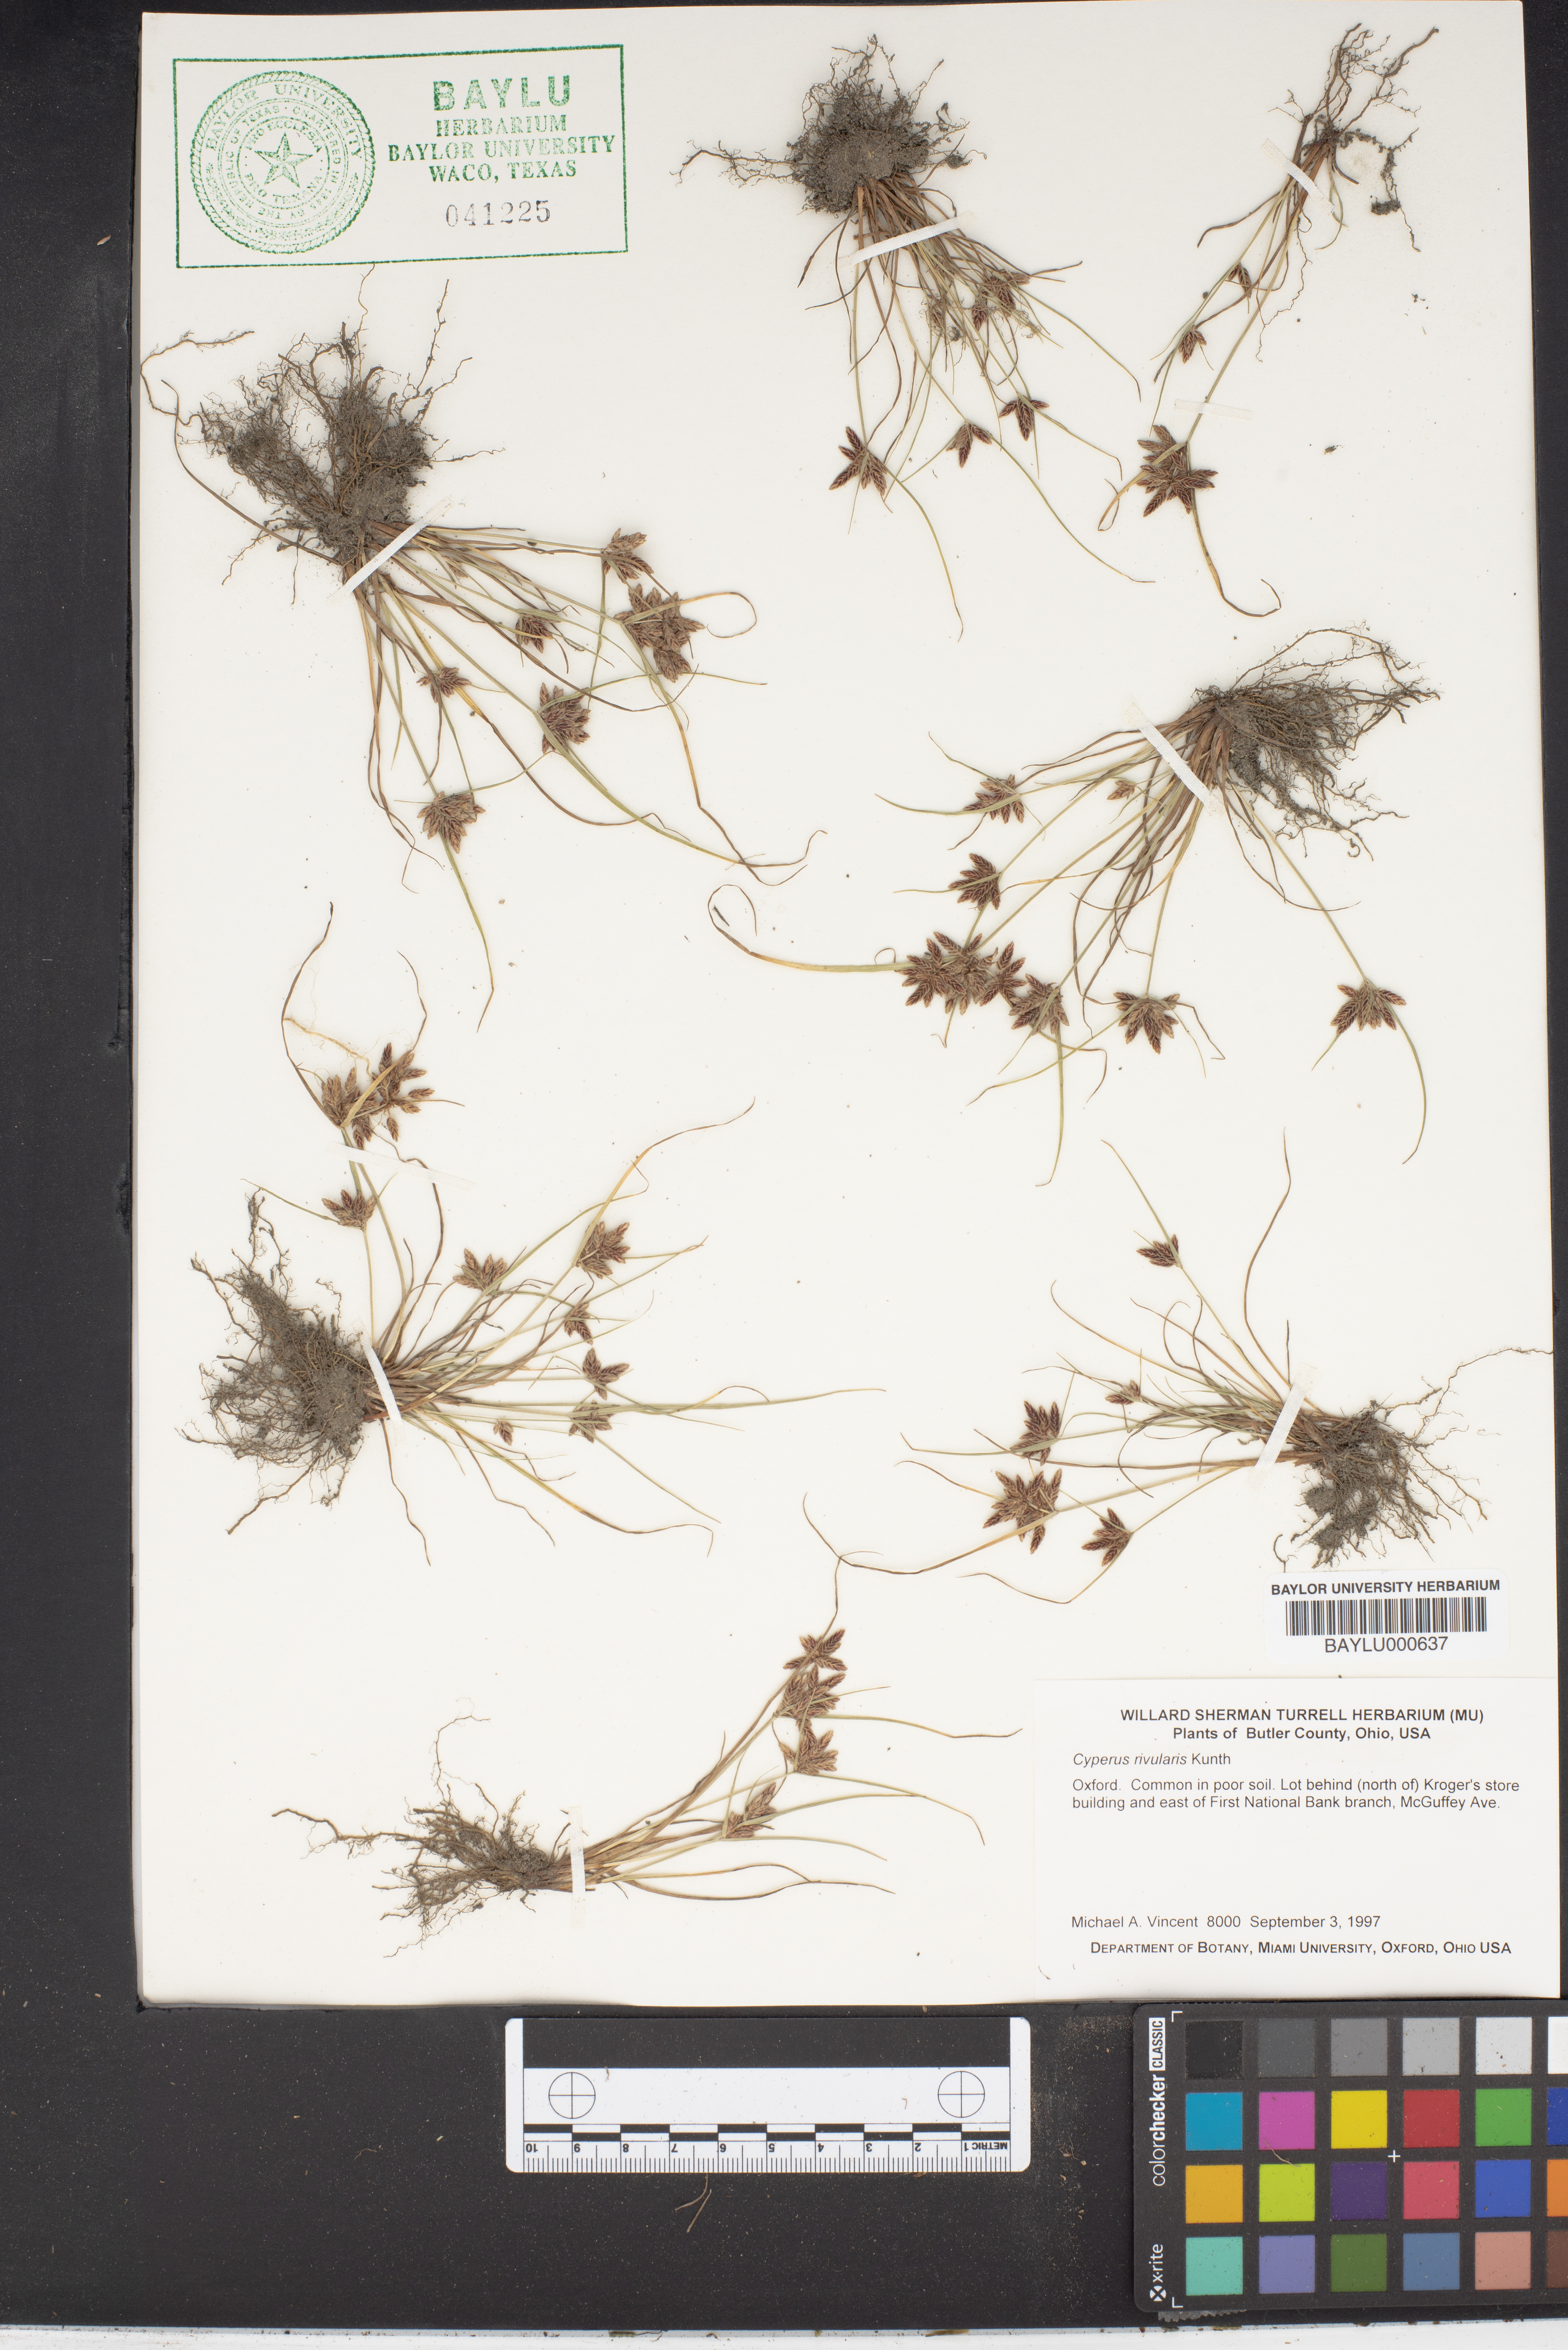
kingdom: Plantae
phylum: Tracheophyta
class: Liliopsida
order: Poales
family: Cyperaceae
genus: Cyperus
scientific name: Cyperus bipartitus
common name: Brook flatsedge
